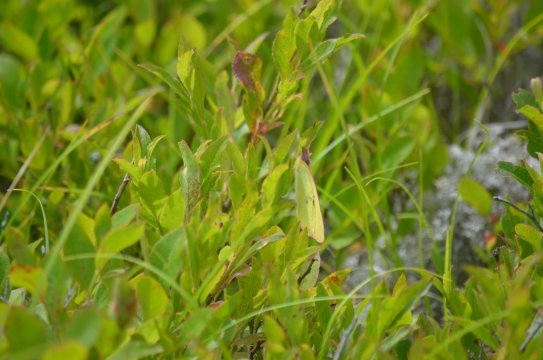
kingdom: Animalia
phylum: Arthropoda
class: Insecta
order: Lepidoptera
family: Pieridae
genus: Colias
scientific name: Colias interior
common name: Pink-edged Sulphur
